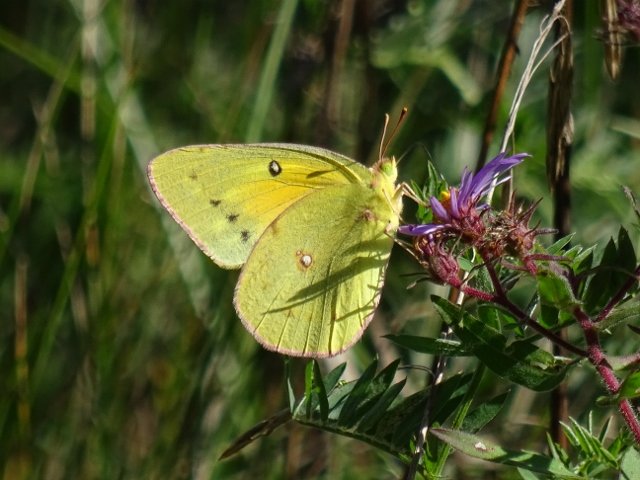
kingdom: Animalia
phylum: Arthropoda
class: Insecta
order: Lepidoptera
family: Pieridae
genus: Colias
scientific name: Colias eurytheme
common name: Orange Sulphur
